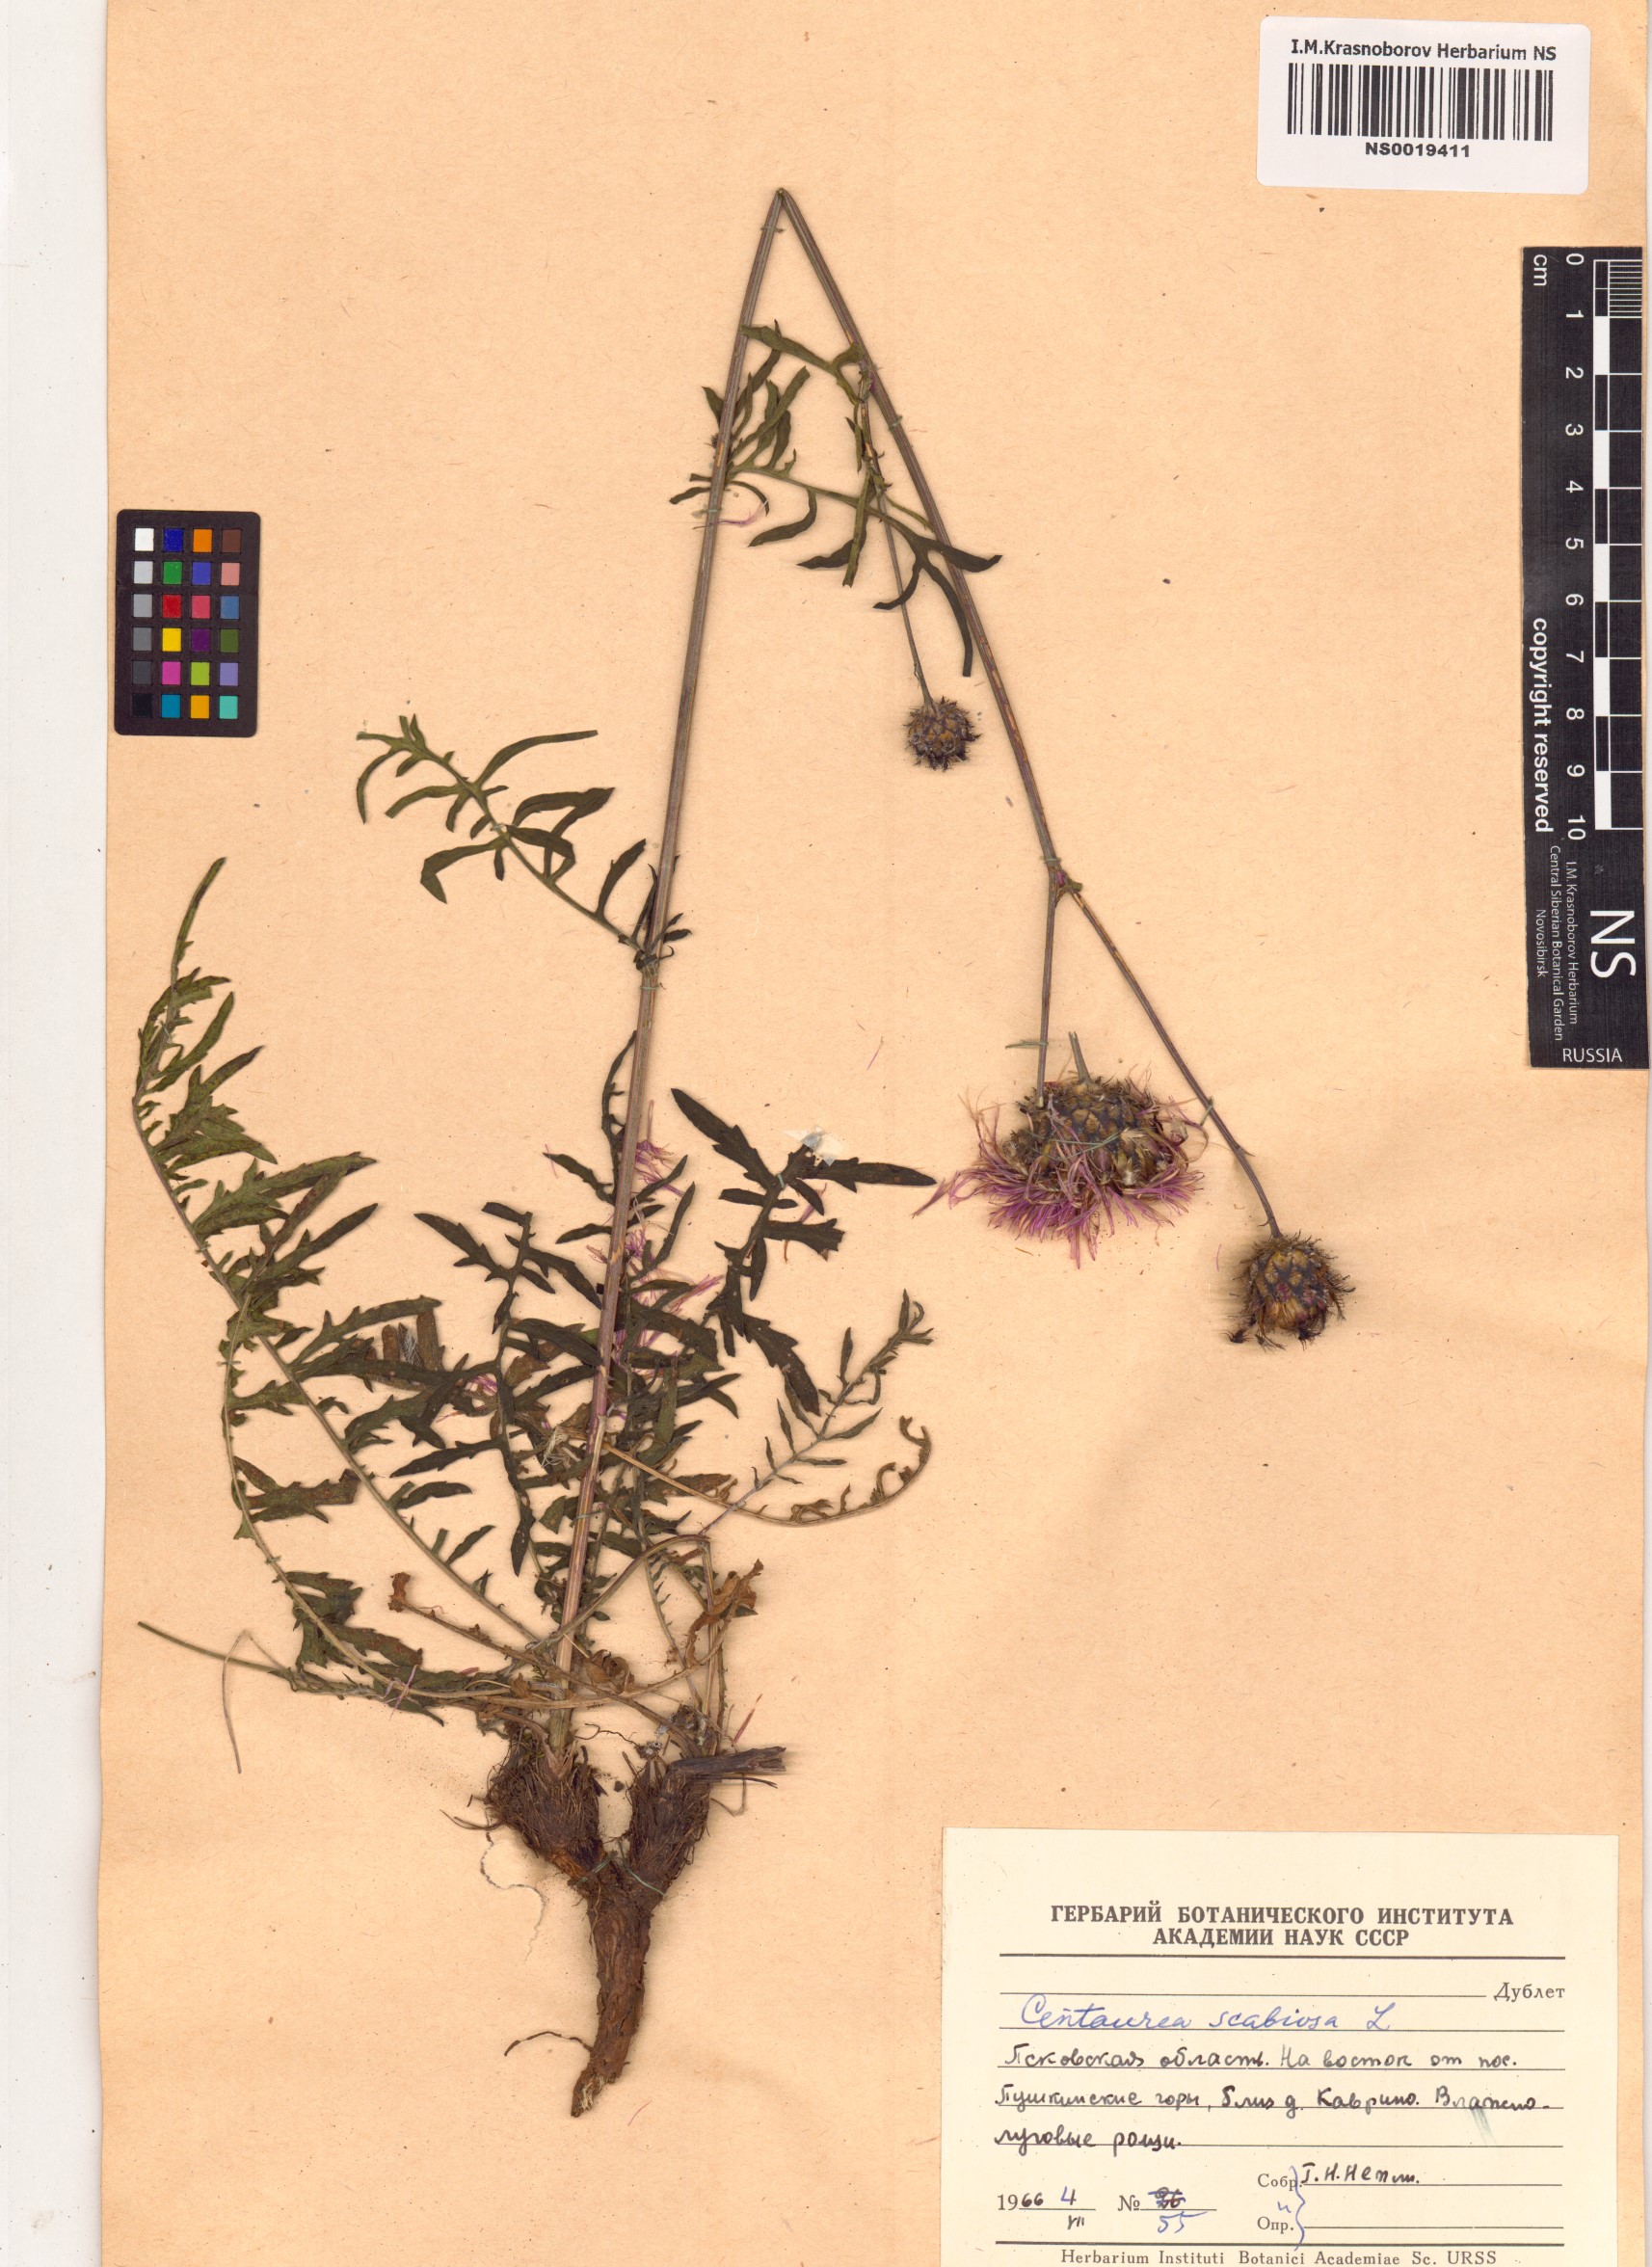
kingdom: Plantae
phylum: Tracheophyta
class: Magnoliopsida
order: Asterales
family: Asteraceae
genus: Centaurea
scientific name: Centaurea scabiosa
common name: Greater knapweed
